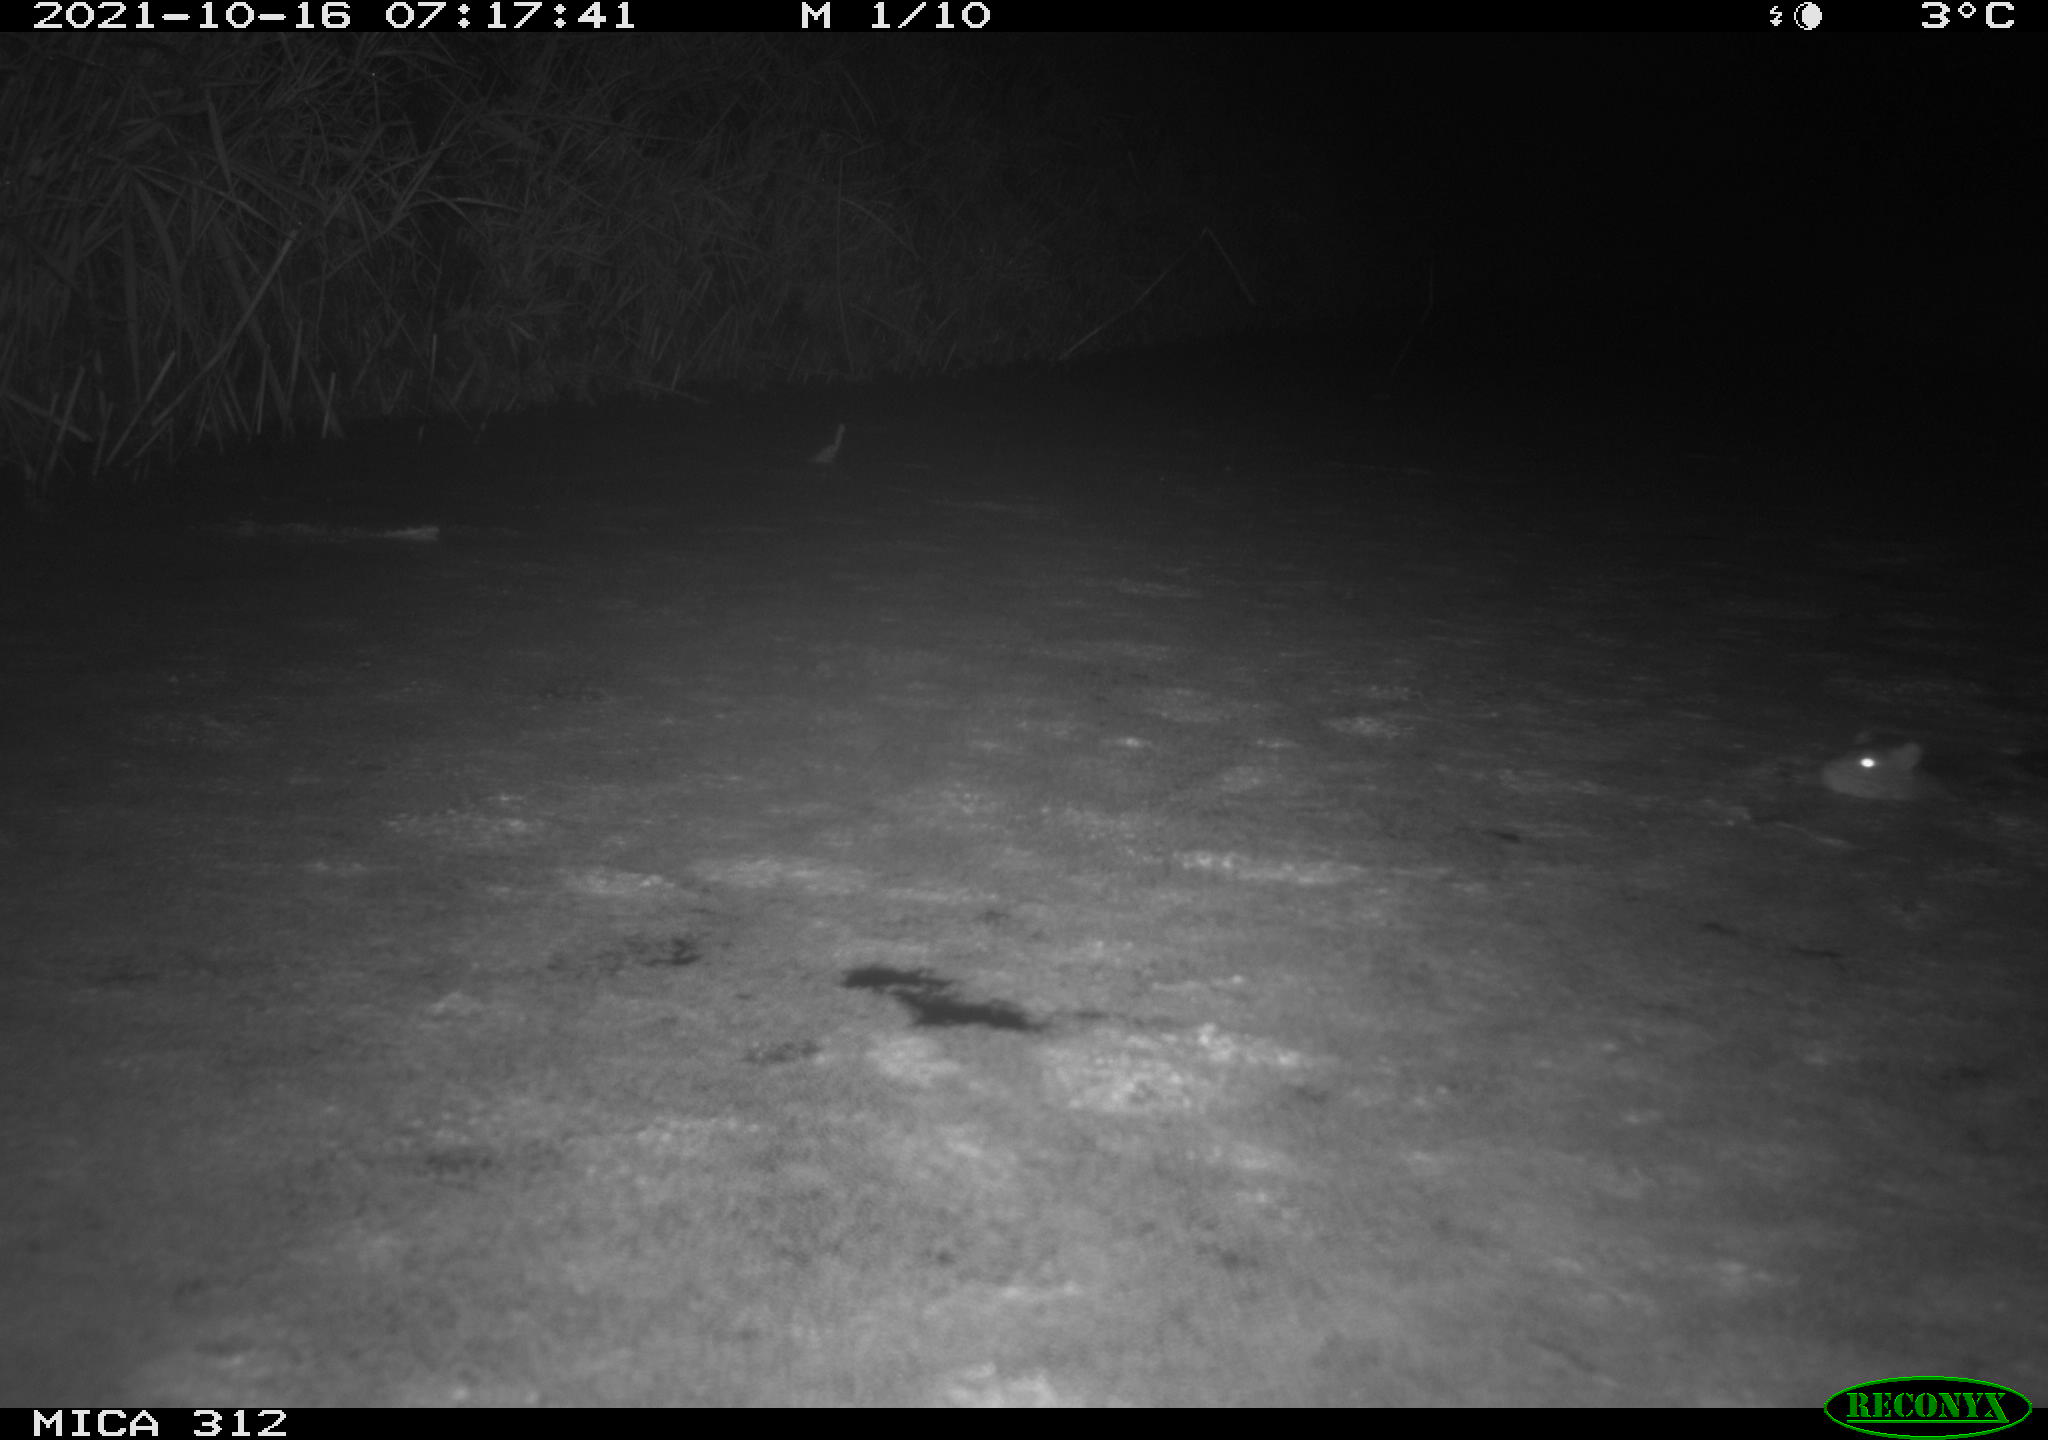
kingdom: Animalia
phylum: Chordata
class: Mammalia
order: Rodentia
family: Muridae
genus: Rattus
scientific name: Rattus norvegicus
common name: Brown rat
